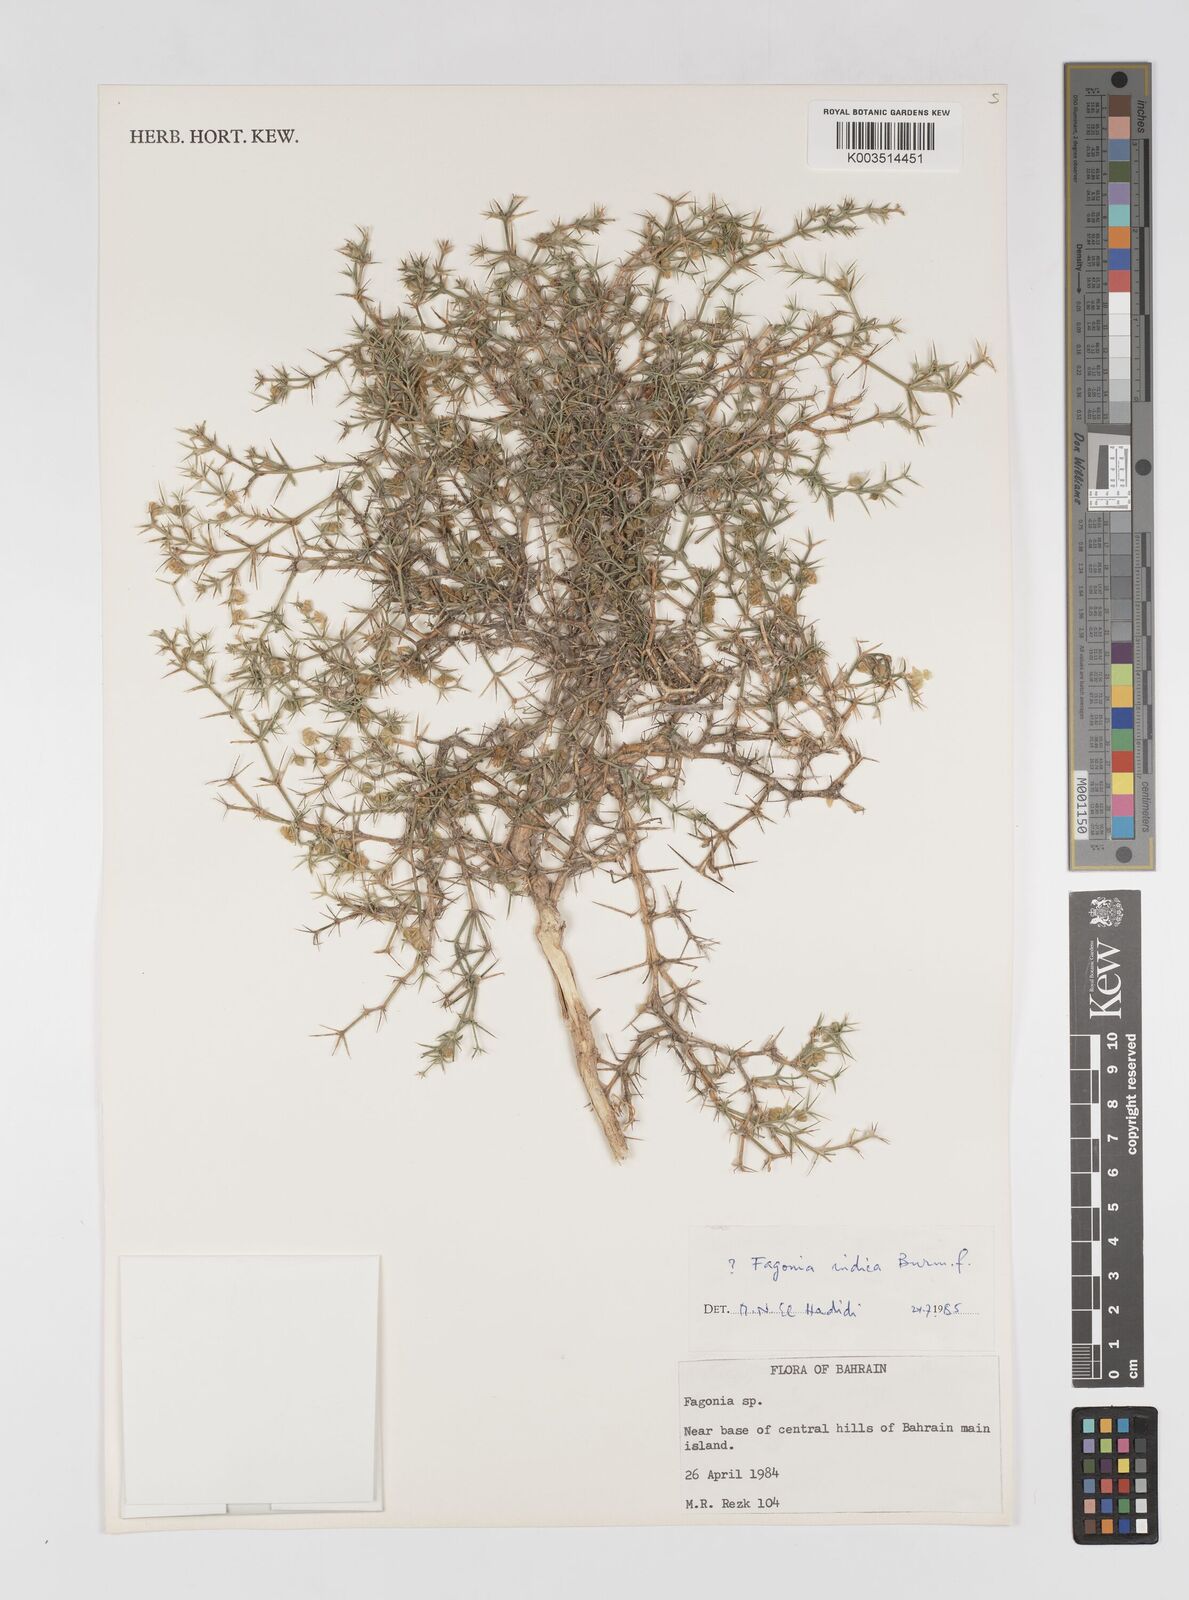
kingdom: Plantae
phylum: Tracheophyta
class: Magnoliopsida
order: Zygophyllales
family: Zygophyllaceae
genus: Fagonia
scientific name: Fagonia indica
